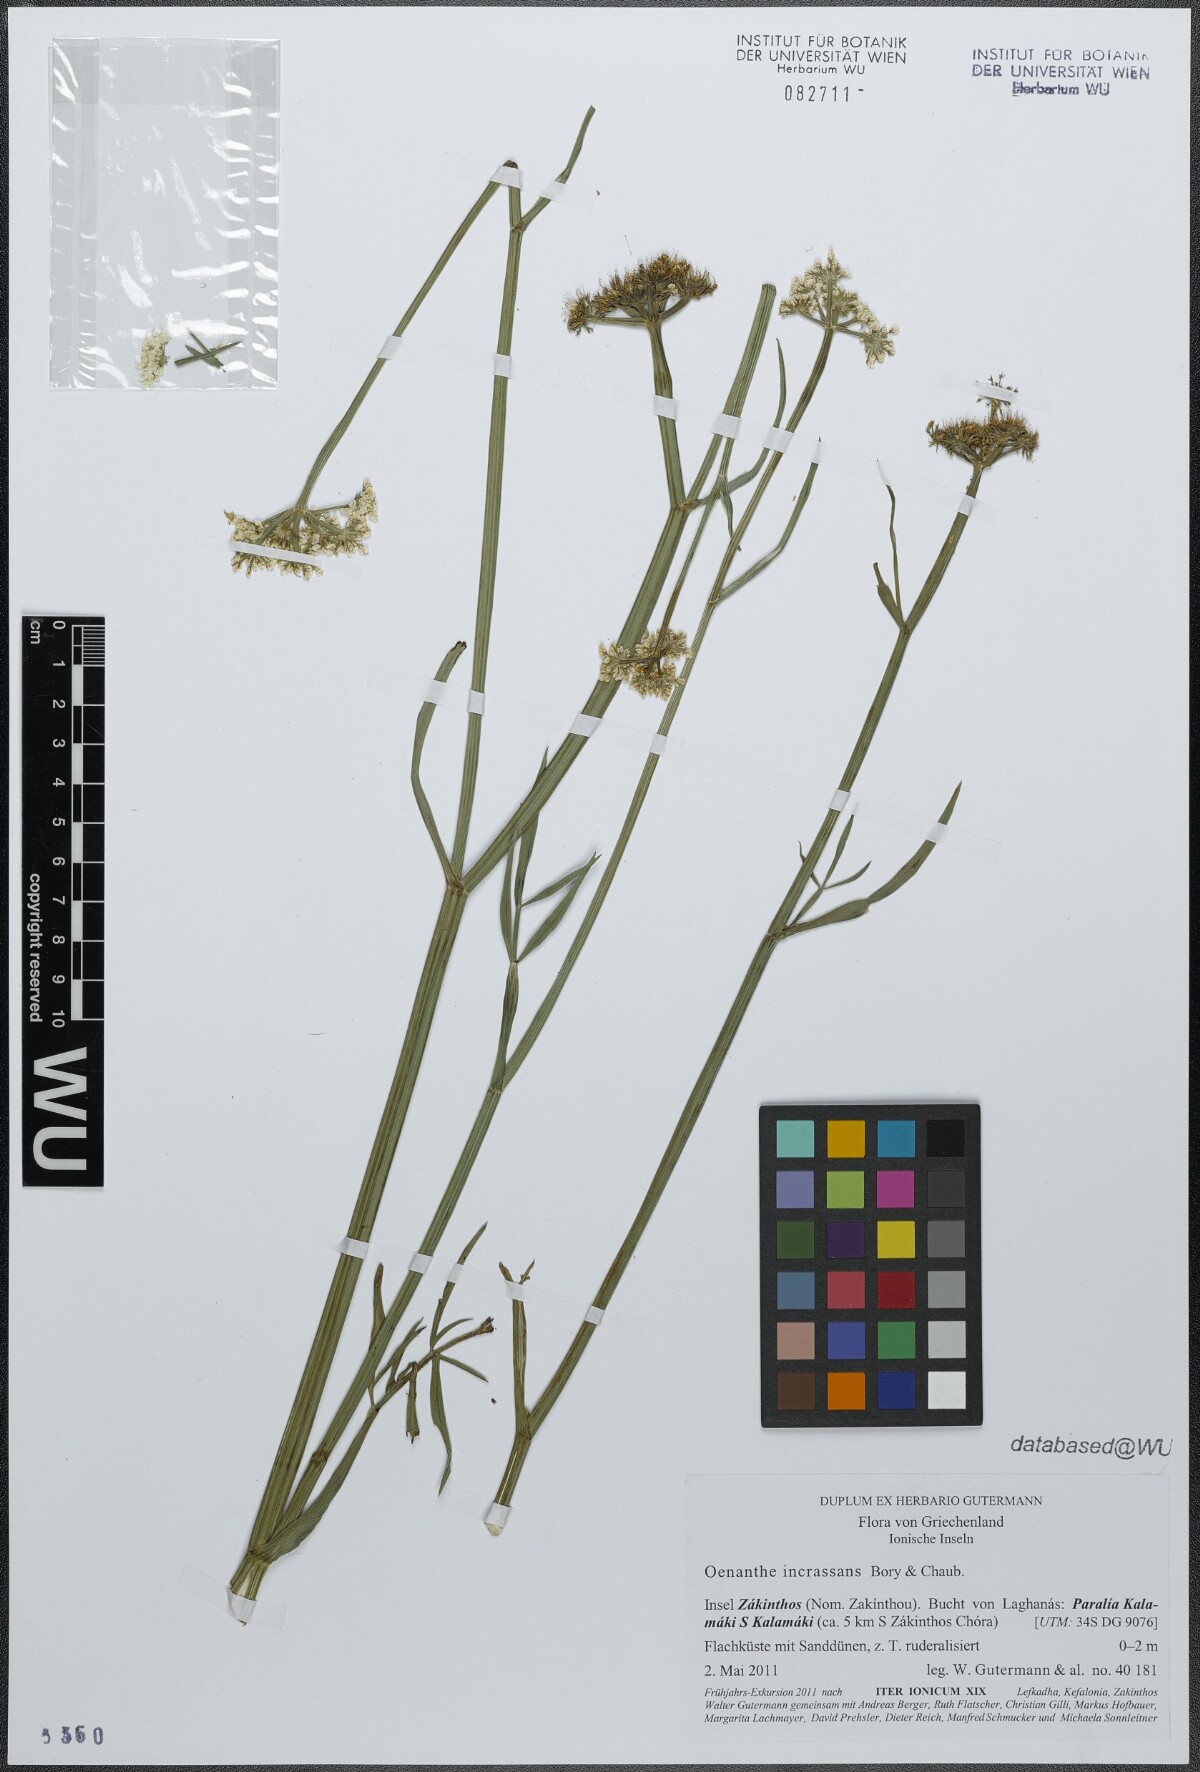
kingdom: Plantae
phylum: Tracheophyta
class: Magnoliopsida
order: Apiales
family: Apiaceae
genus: Oenanthe
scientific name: Oenanthe pimpinelloides
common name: Corky-fruited water-dropwort
